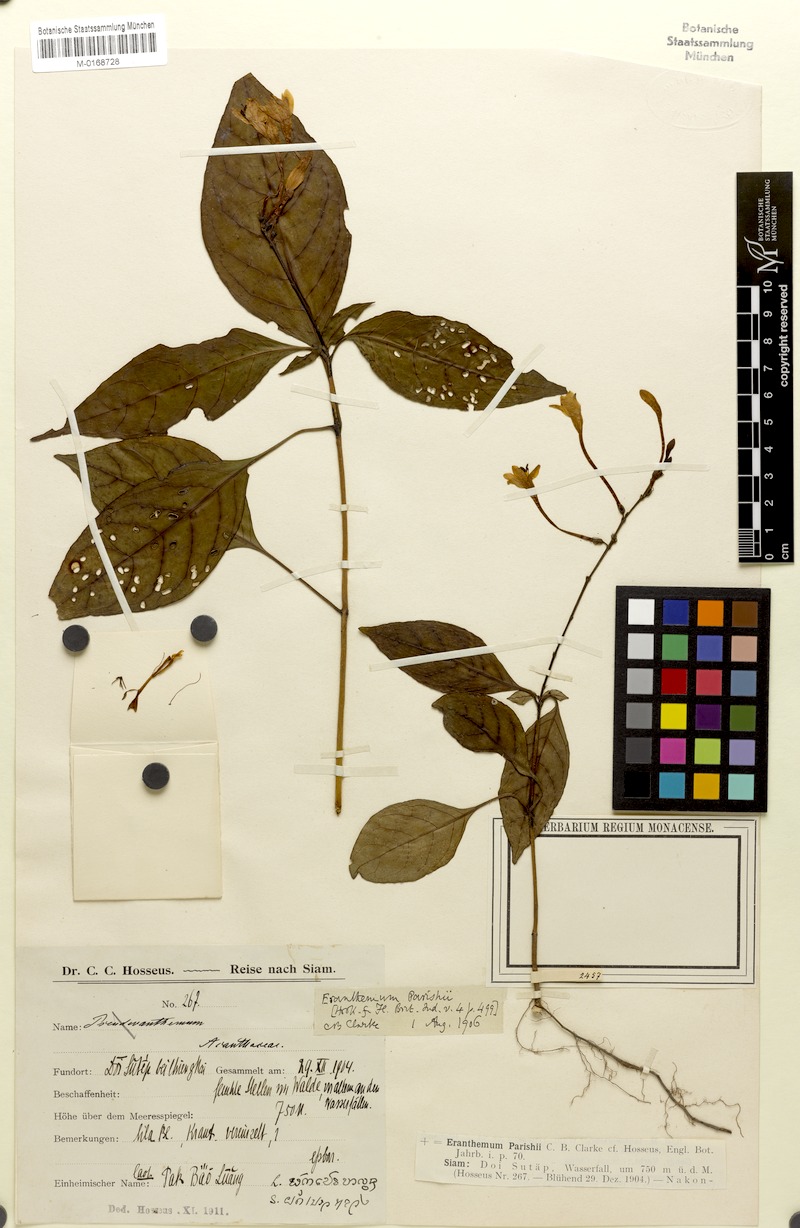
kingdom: Plantae
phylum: Tracheophyta
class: Magnoliopsida
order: Lamiales
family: Acanthaceae
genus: Pseuderanthemum
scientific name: Pseuderanthemum parishii
